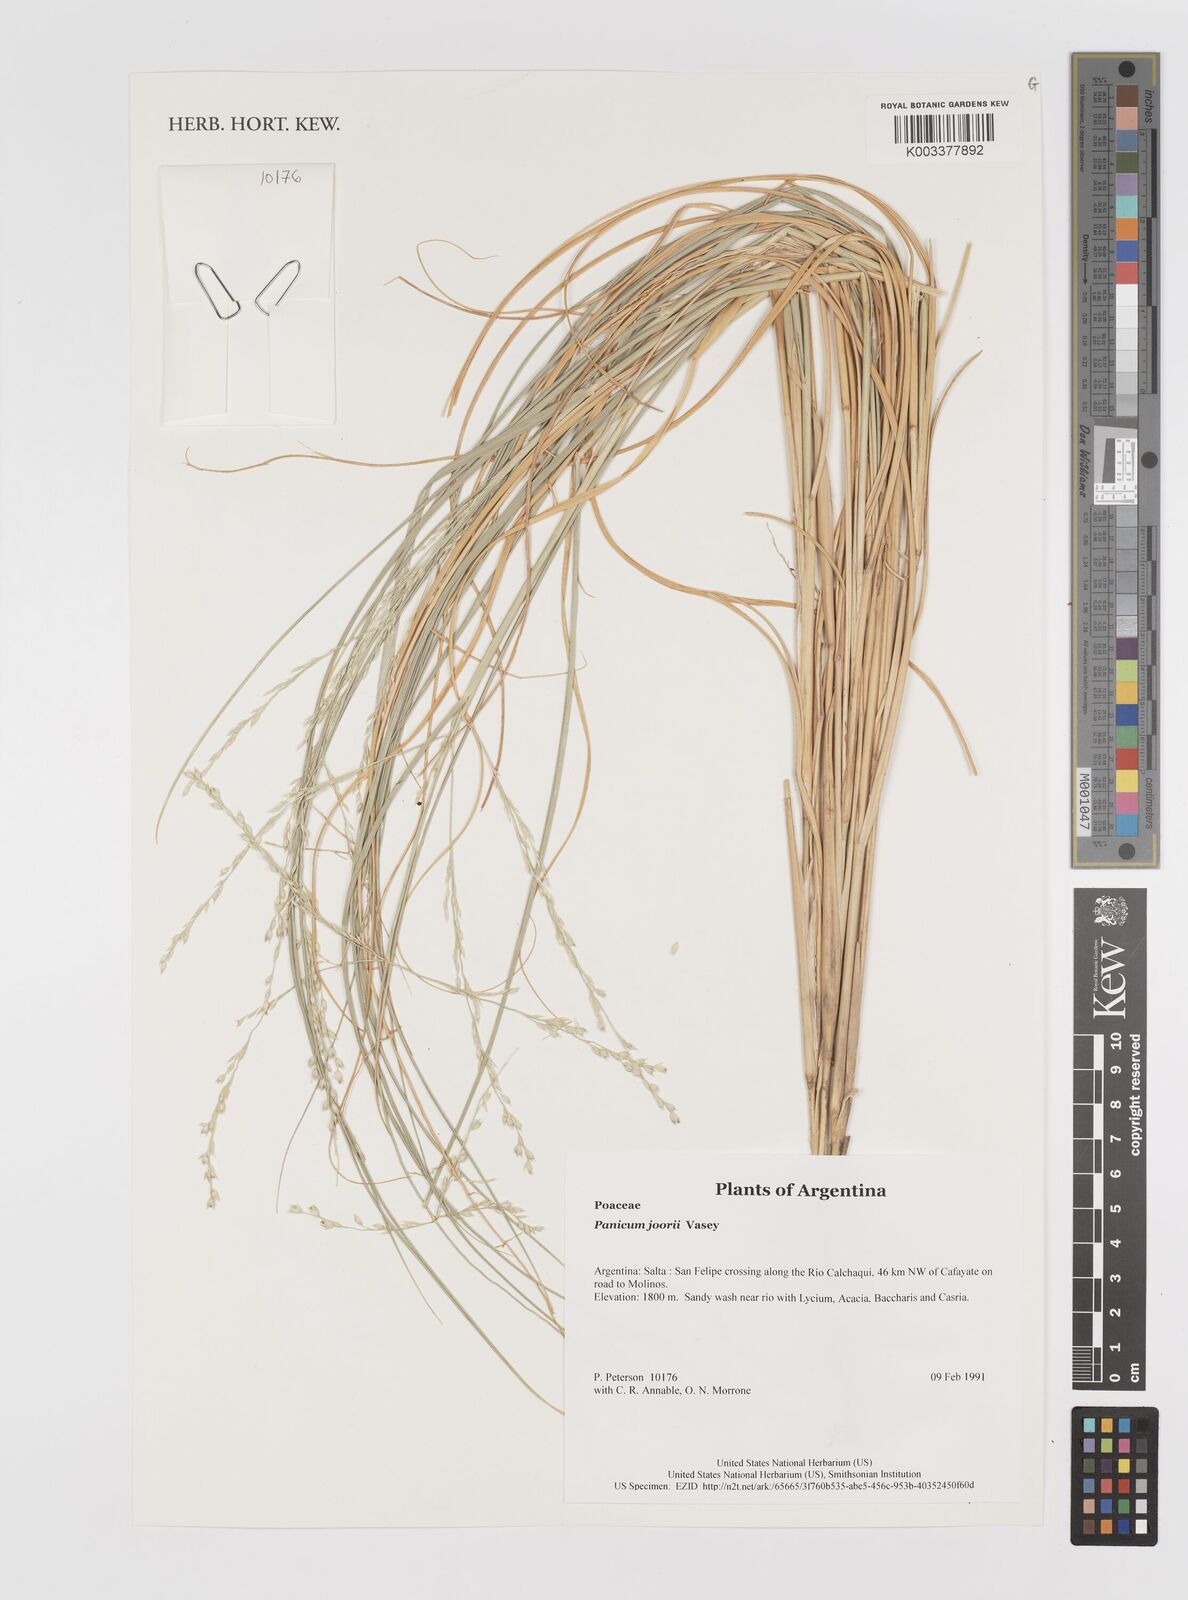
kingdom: Plantae
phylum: Tracheophyta
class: Liliopsida
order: Poales
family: Poaceae
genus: Dichanthelium
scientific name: Dichanthelium commutatum
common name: Variable witchgrass
